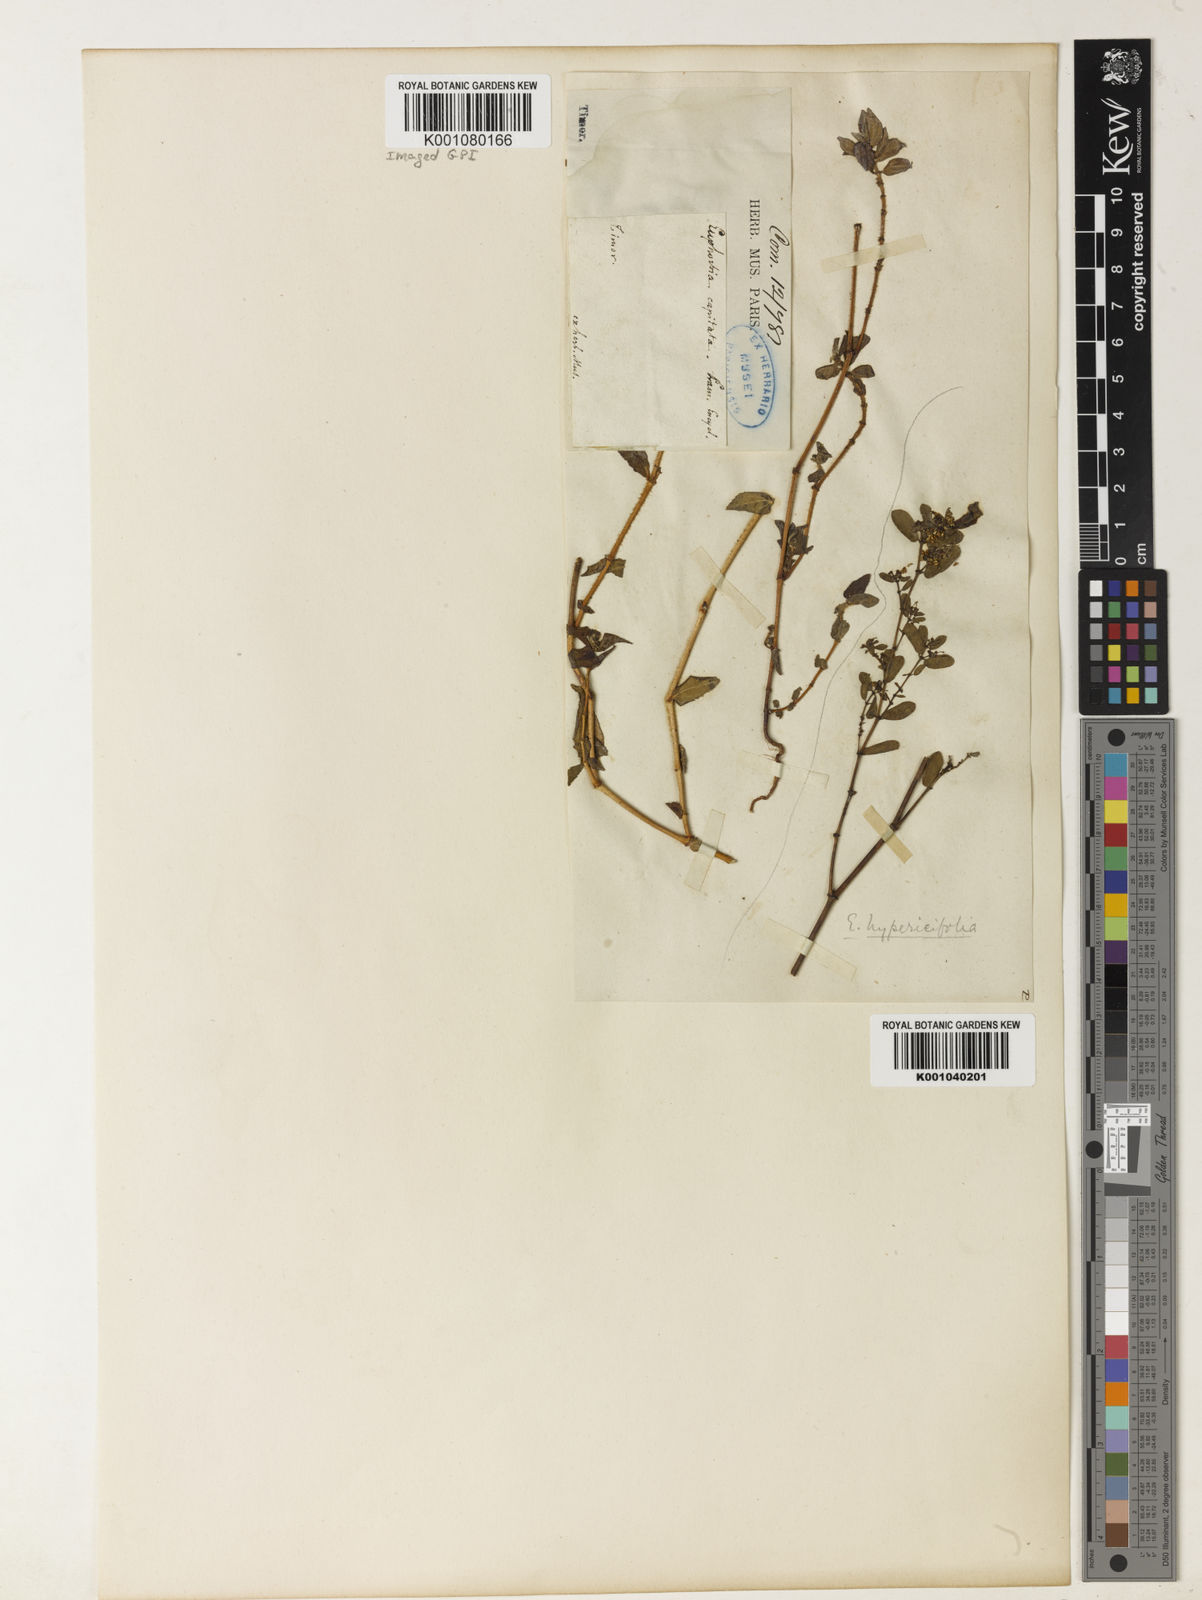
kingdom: Plantae
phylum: Tracheophyta
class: Magnoliopsida
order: Malpighiales
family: Euphorbiaceae
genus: Euphorbia
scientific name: Euphorbia hirta
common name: Pillpod sandmat
